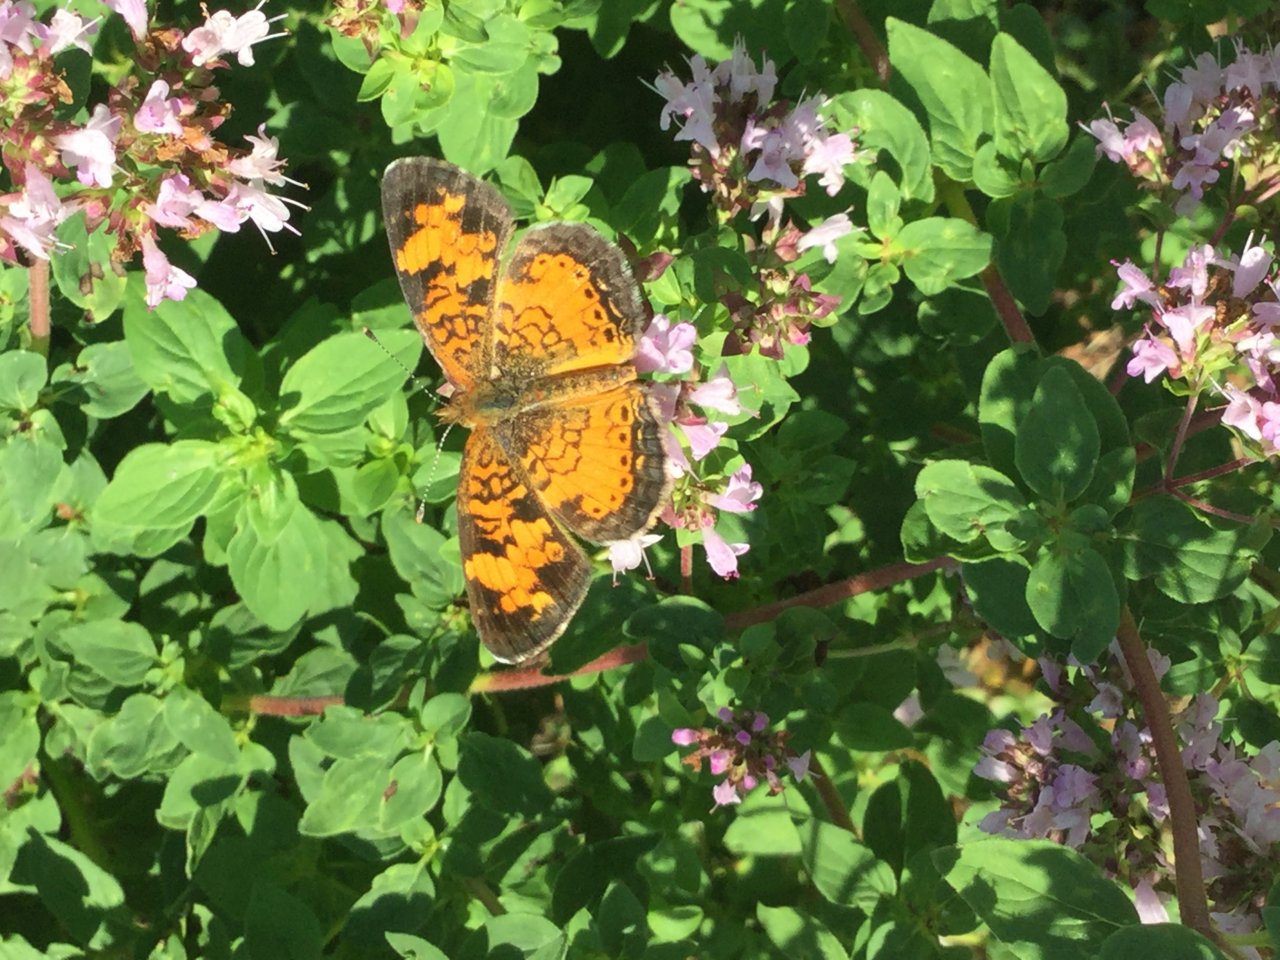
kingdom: Animalia
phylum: Arthropoda
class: Insecta
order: Lepidoptera
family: Nymphalidae
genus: Phyciodes
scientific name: Phyciodes
